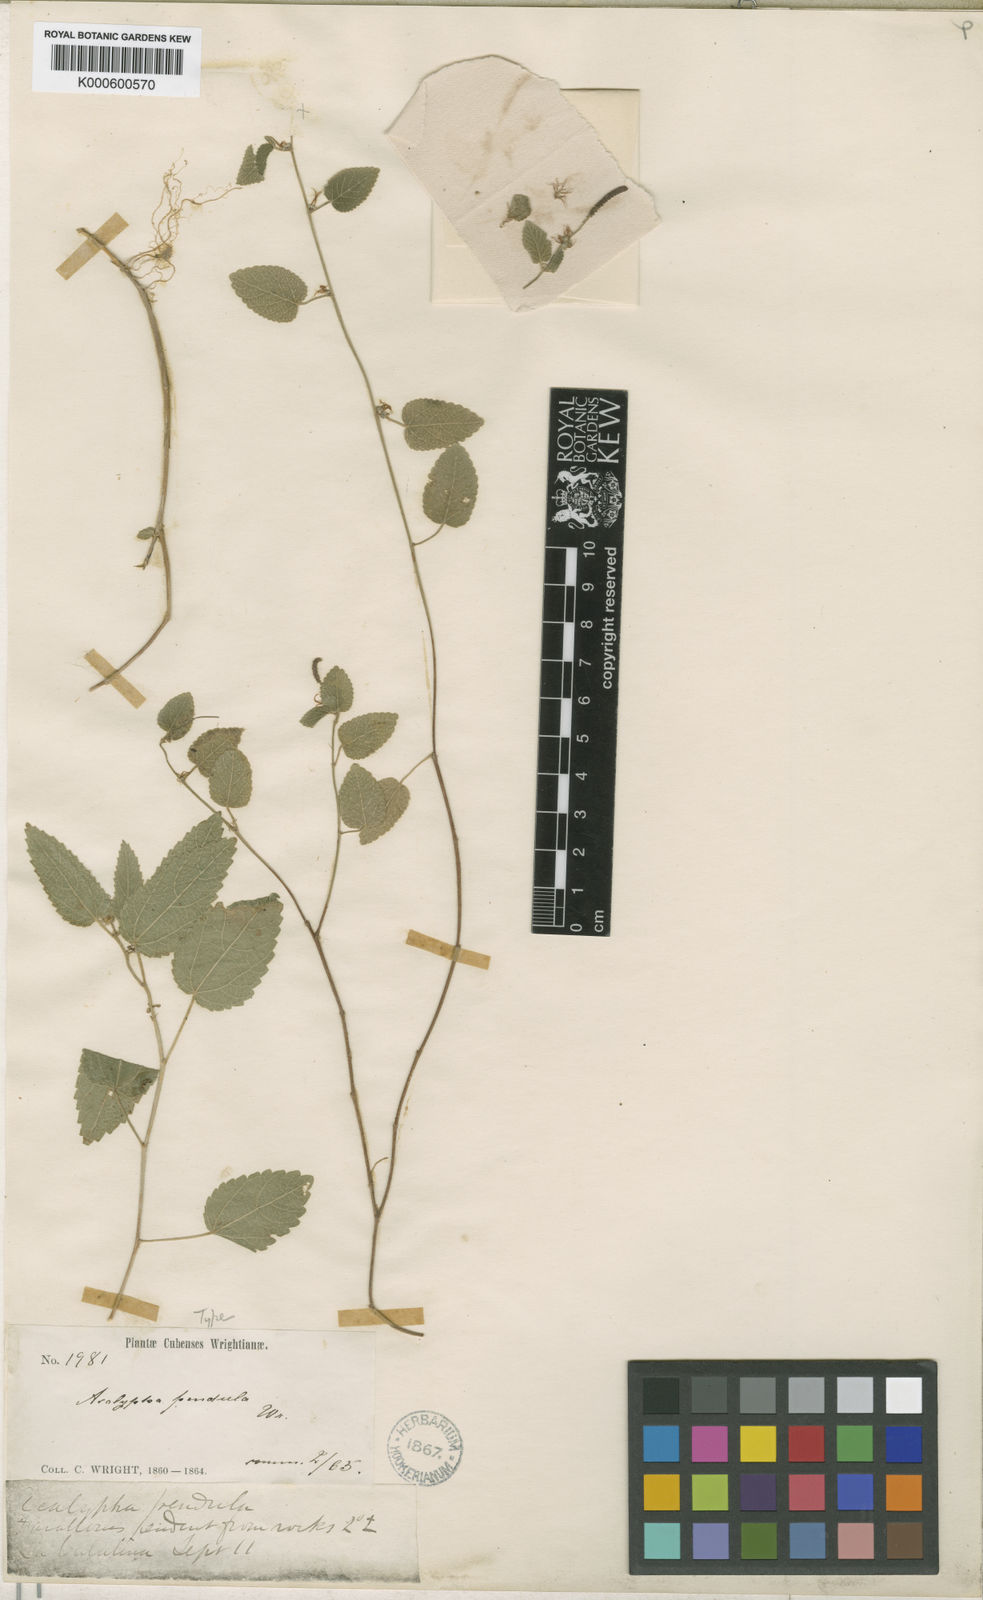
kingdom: Plantae
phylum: Tracheophyta
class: Magnoliopsida
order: Malpighiales
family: Euphorbiaceae
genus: Acalypha
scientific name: Acalypha pendula
